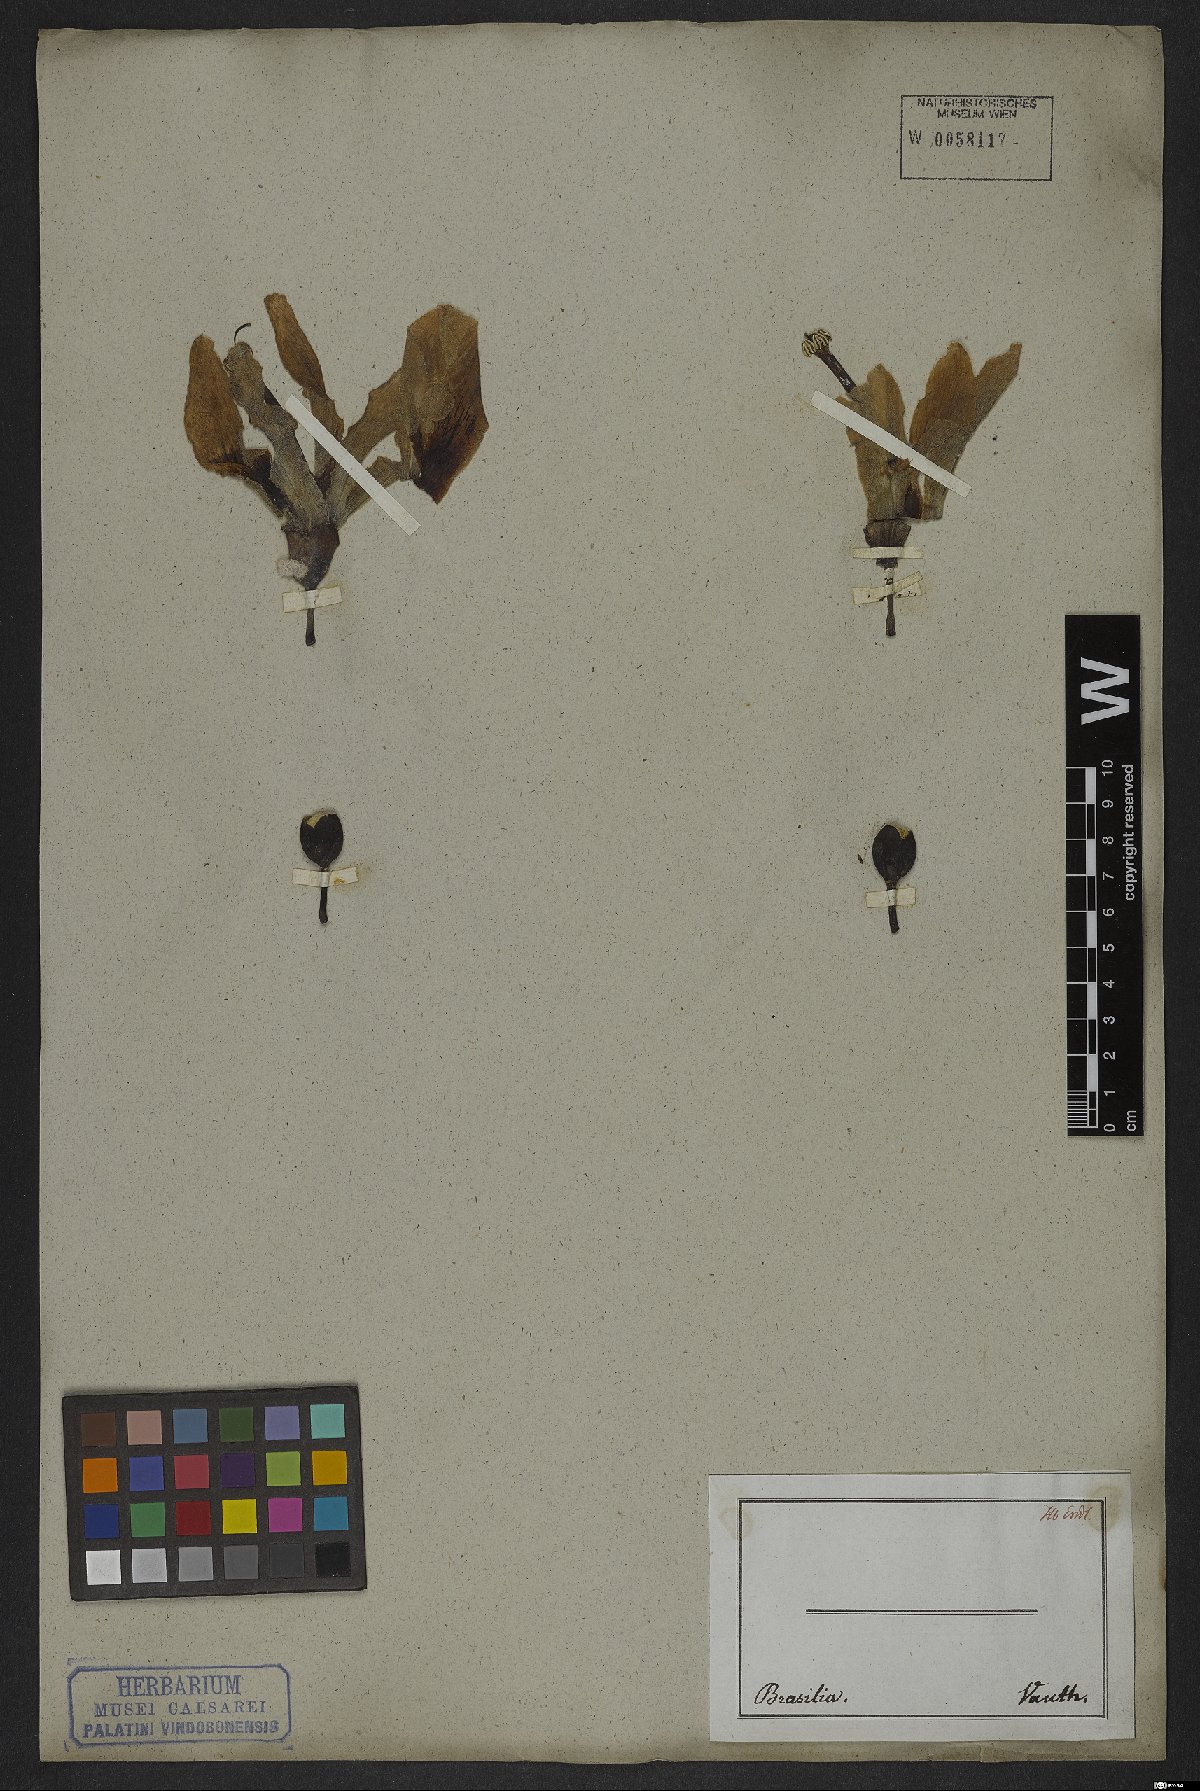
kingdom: Plantae
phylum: Tracheophyta
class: Magnoliopsida
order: Malvales
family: Malvaceae
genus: Ceiba
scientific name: Ceiba speciosa
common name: Silk-floss tree
